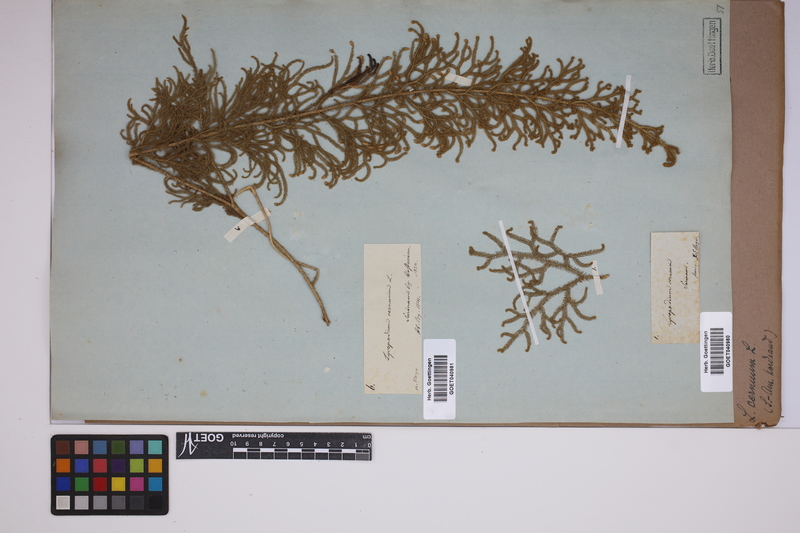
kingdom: Plantae
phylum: Tracheophyta
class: Lycopodiopsida
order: Lycopodiales
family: Lycopodiaceae
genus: Palhinhaea
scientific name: Palhinhaea cernua
